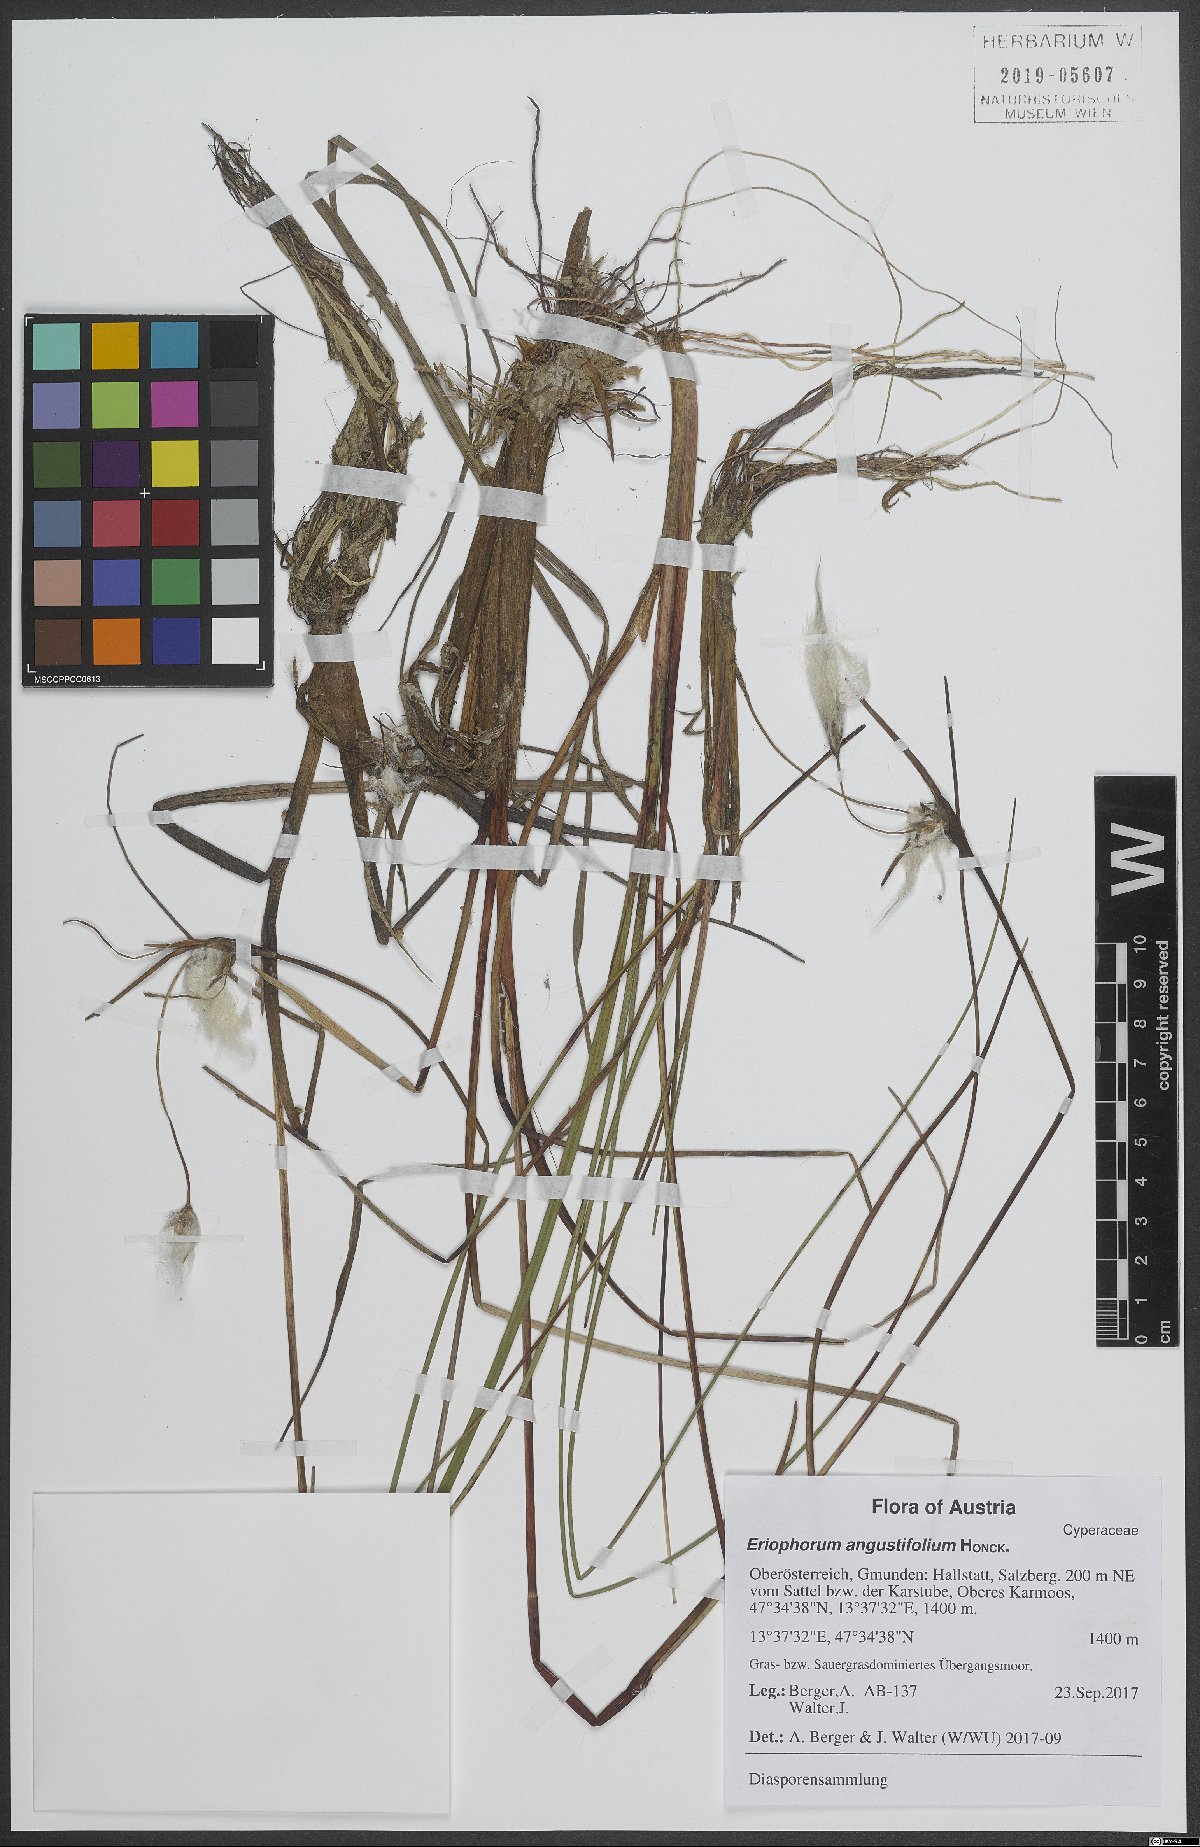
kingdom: Plantae
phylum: Tracheophyta
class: Liliopsida
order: Poales
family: Cyperaceae
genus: Eriophorum
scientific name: Eriophorum angustifolium
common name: Common cottongrass
